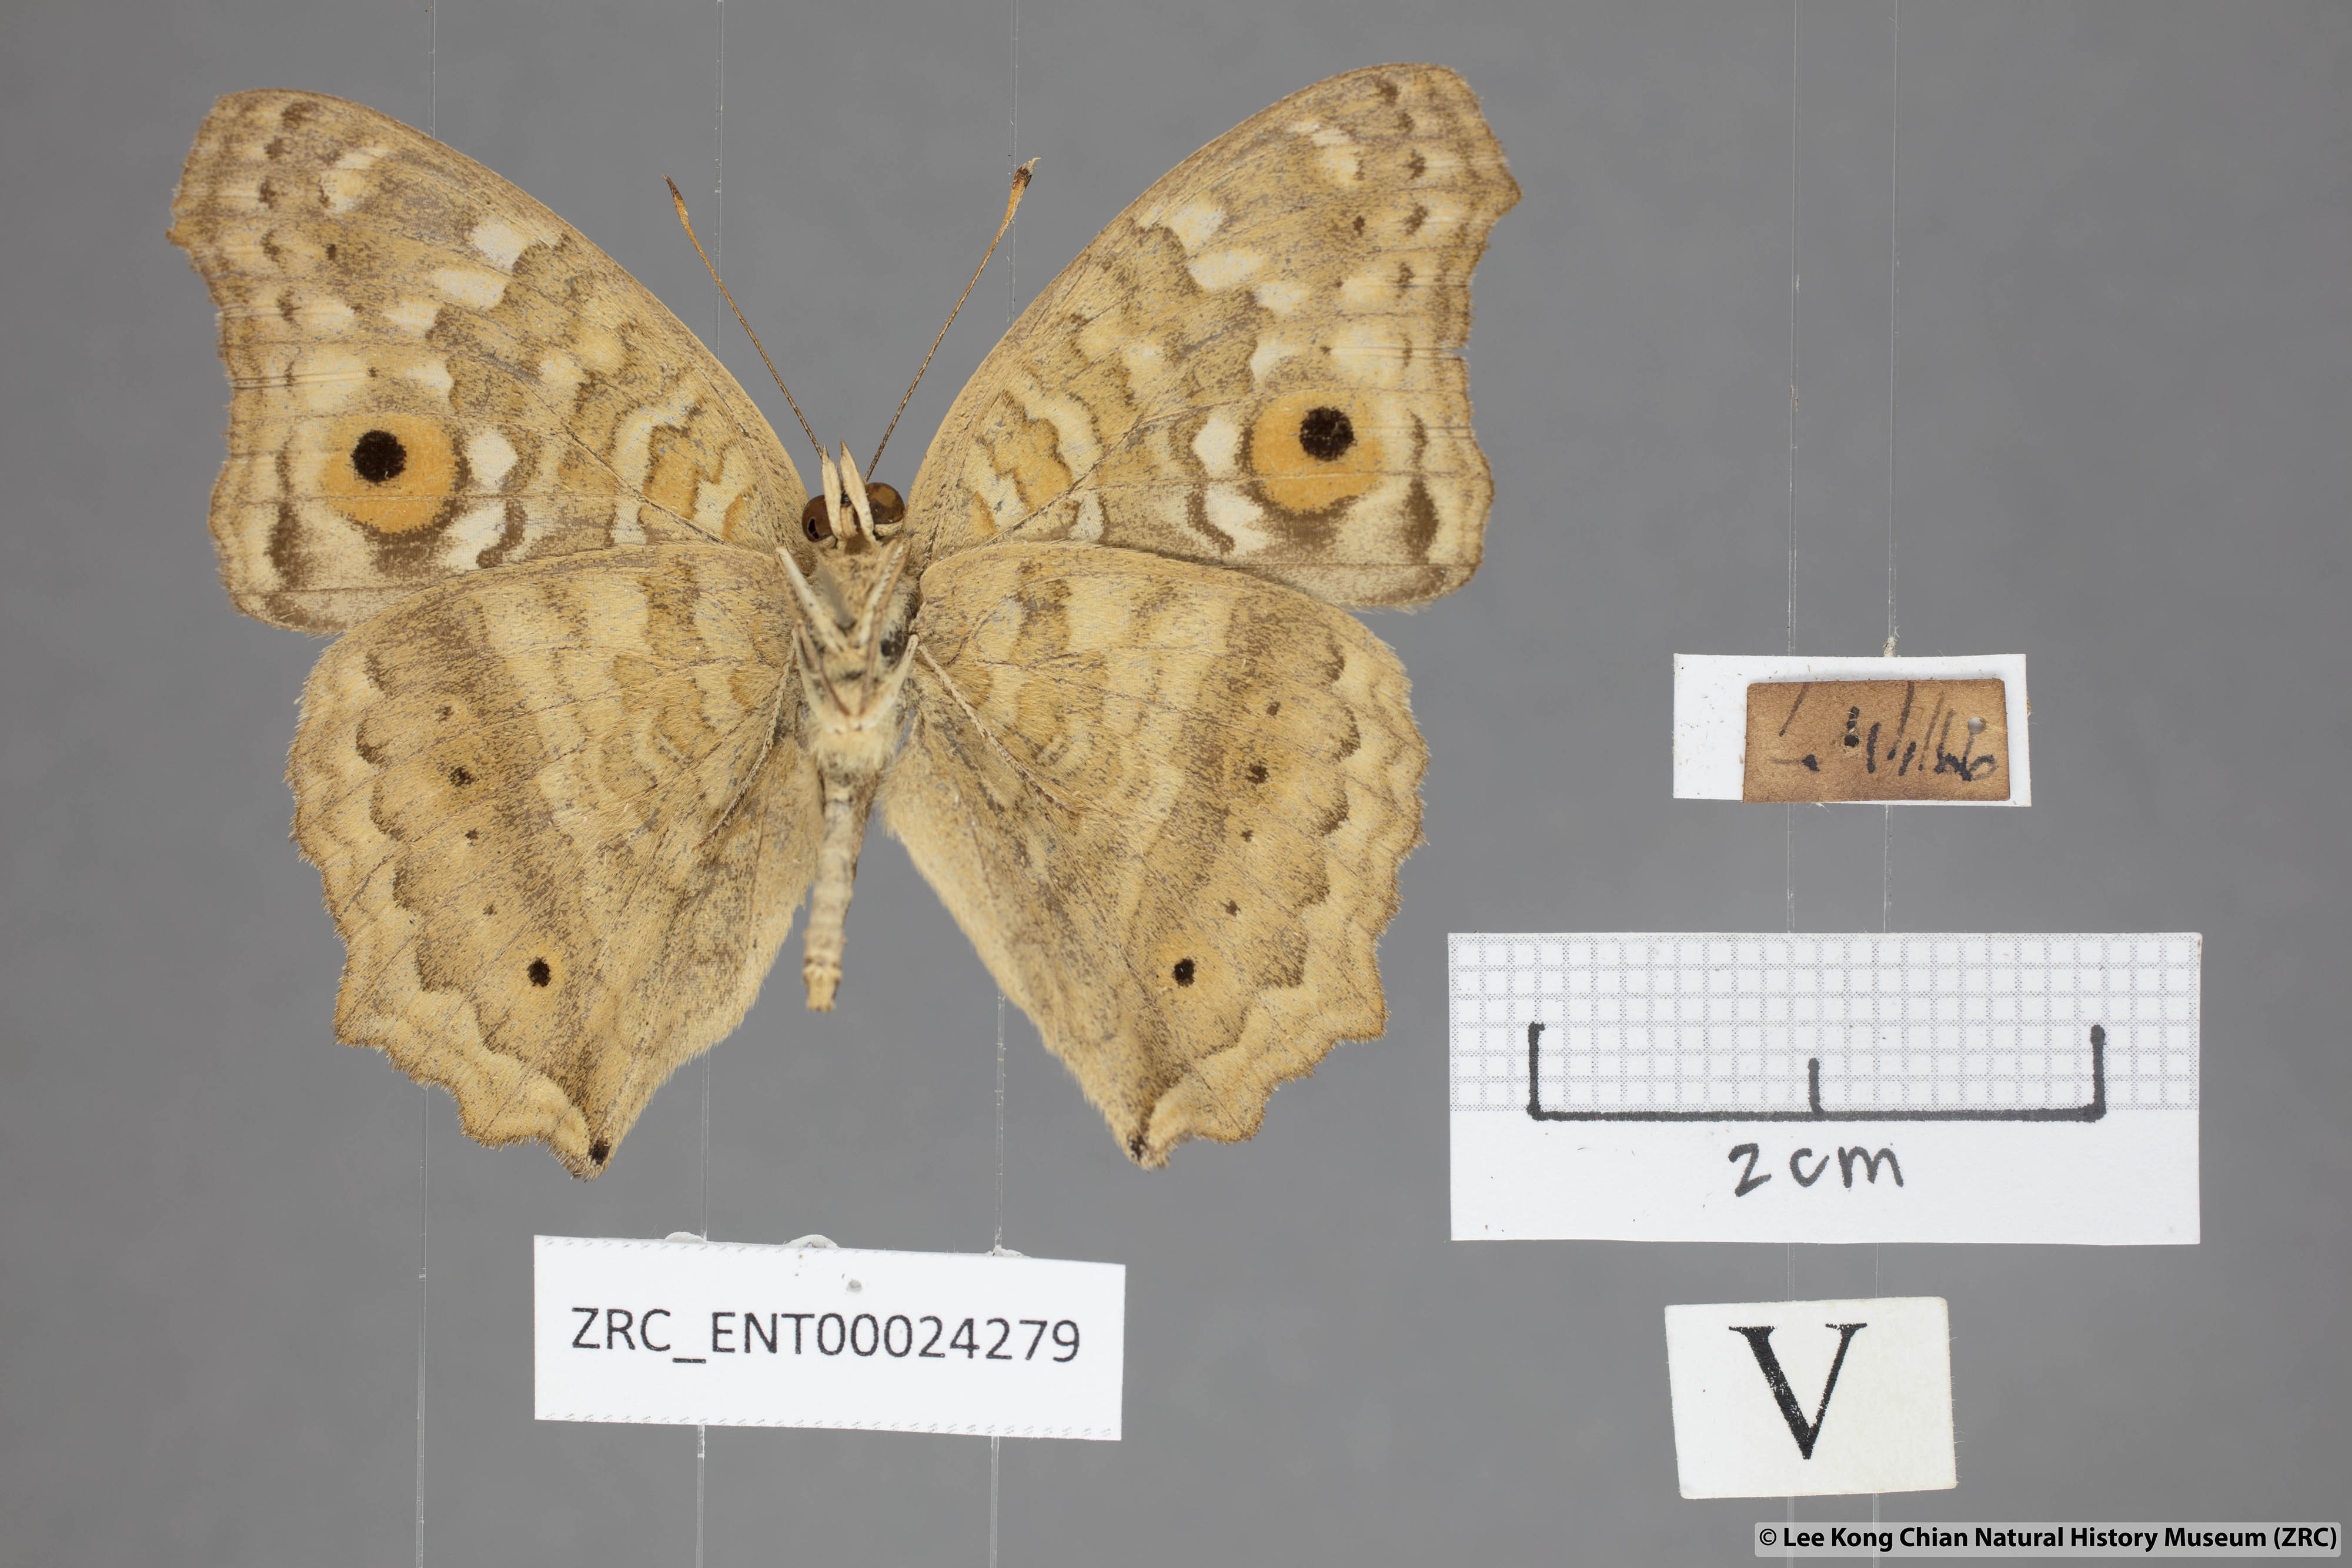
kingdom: Animalia
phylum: Arthropoda
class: Insecta
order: Lepidoptera
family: Nymphalidae
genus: Junonia
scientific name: Junonia lemonias
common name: Lemon pansy
